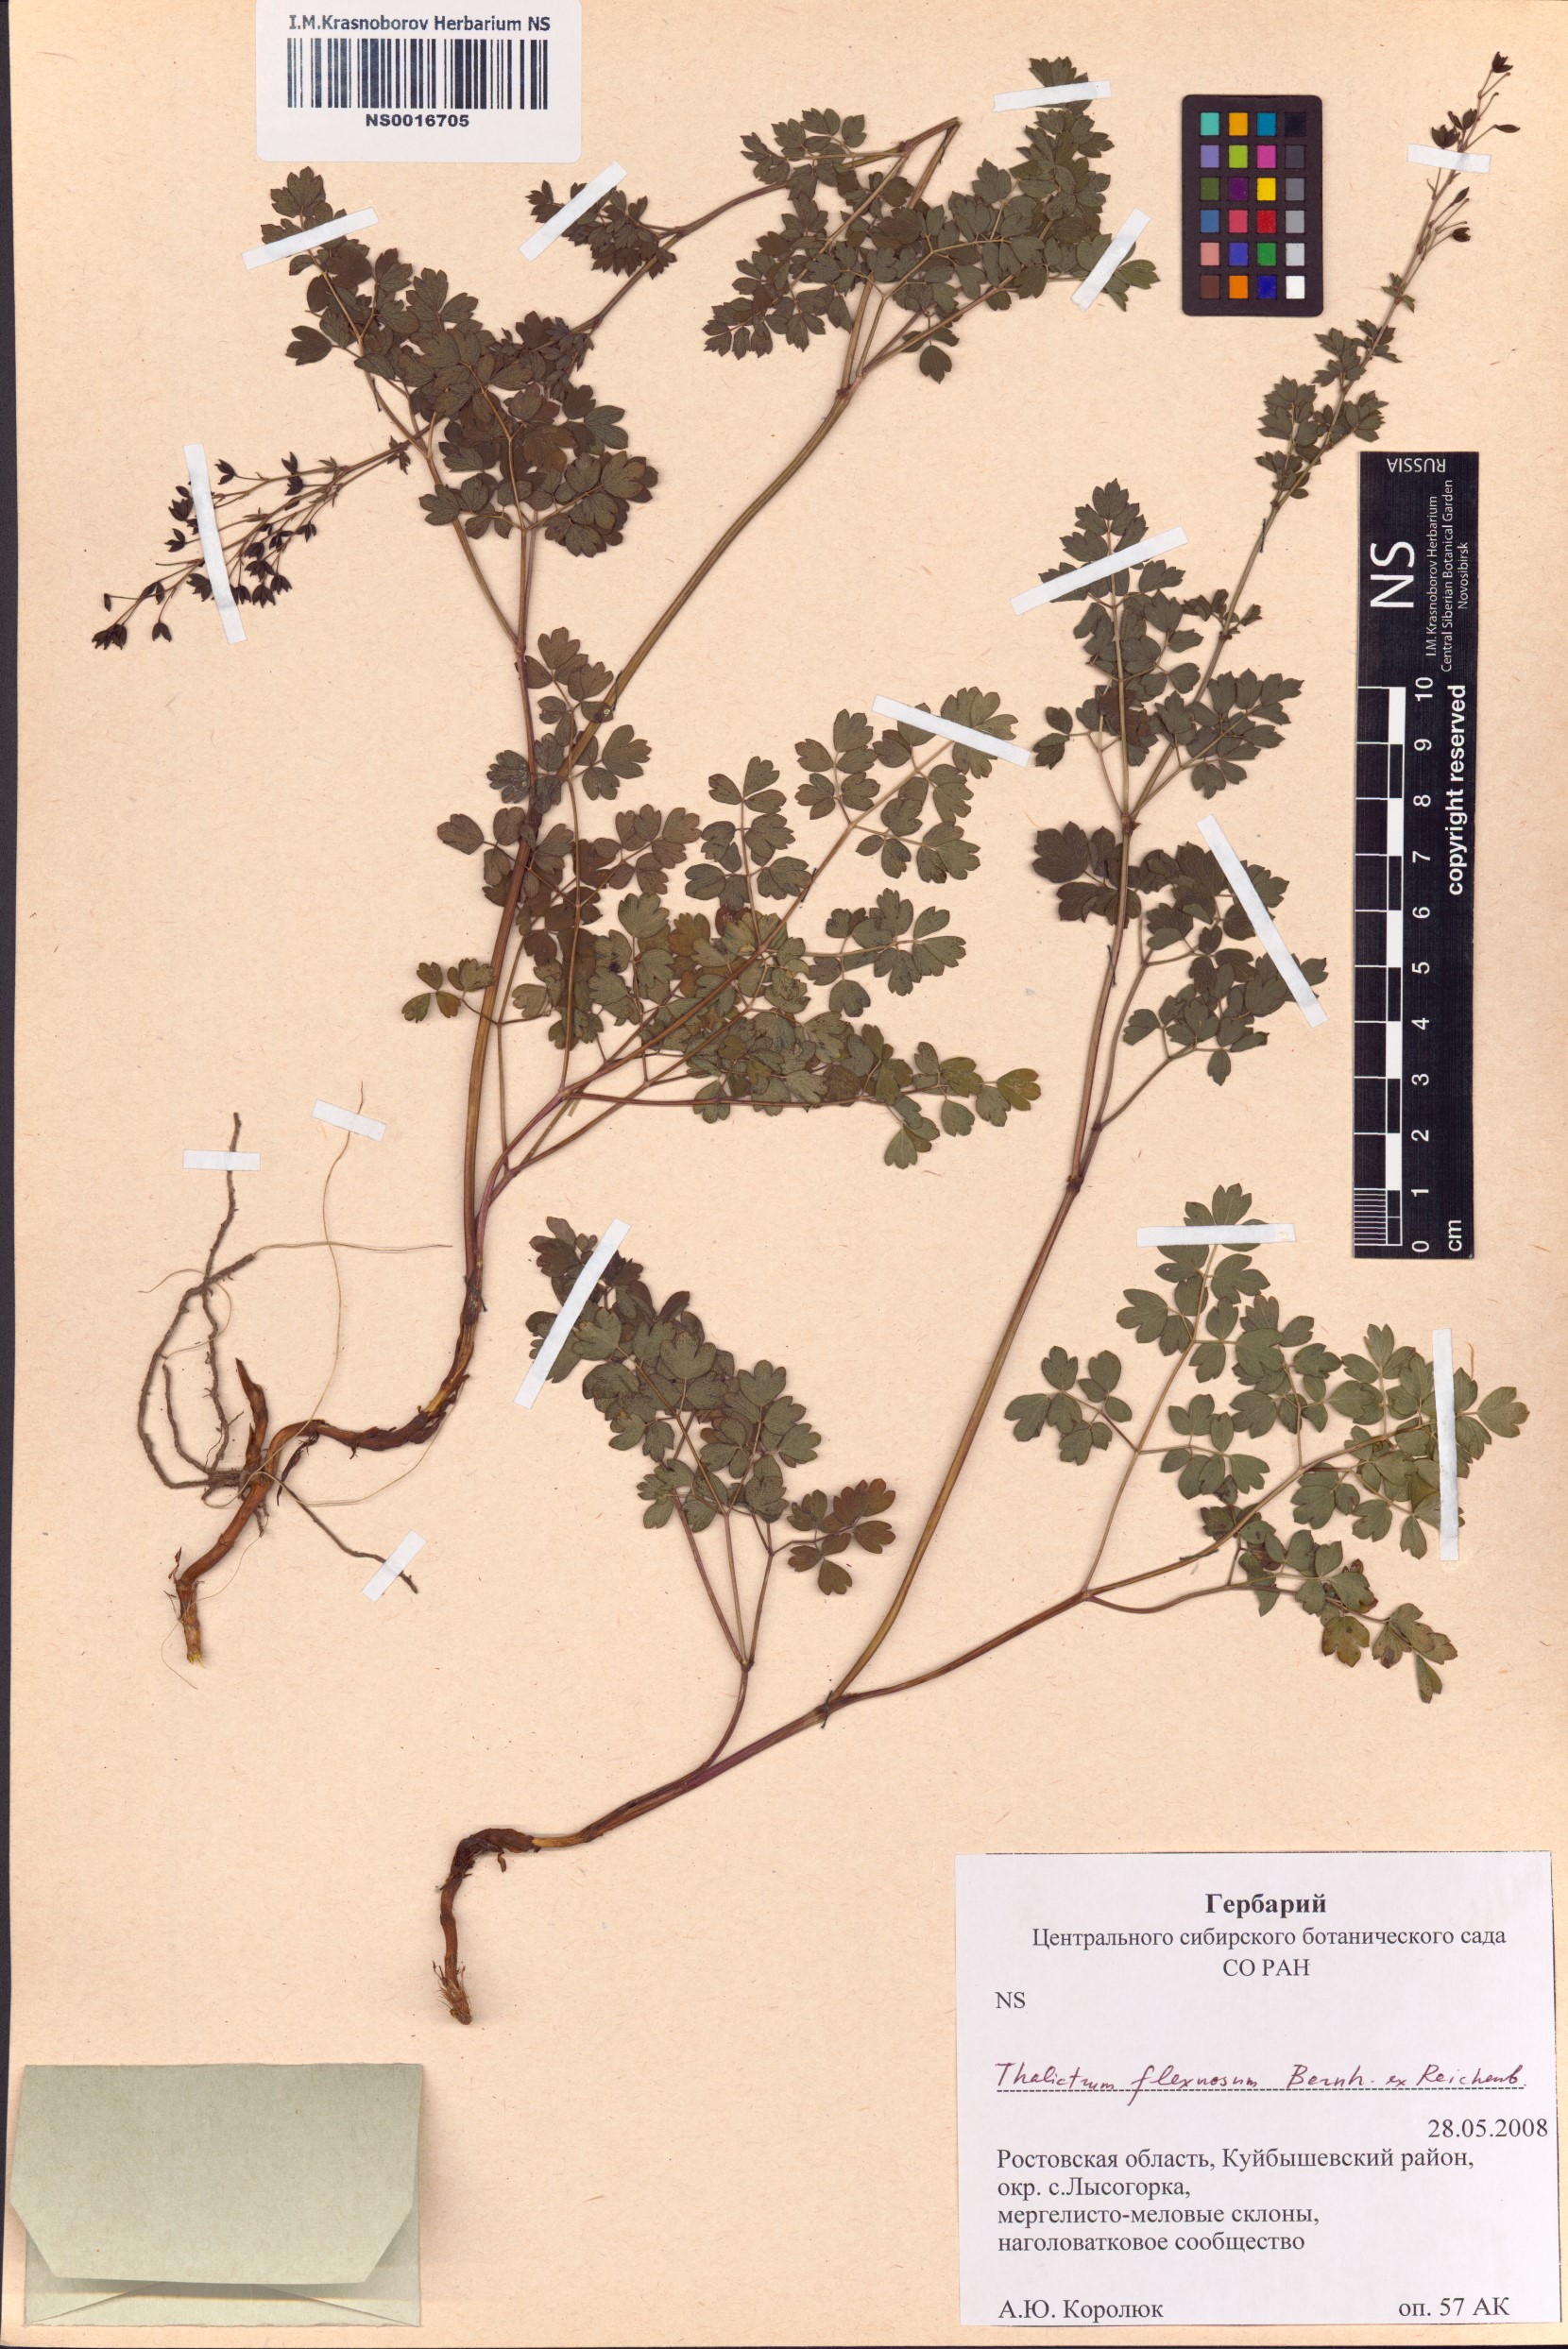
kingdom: Plantae
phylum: Tracheophyta
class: Magnoliopsida
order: Ranunculales
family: Ranunculaceae
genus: Thalictrum
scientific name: Thalictrum minus
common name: Lesser meadow-rue
